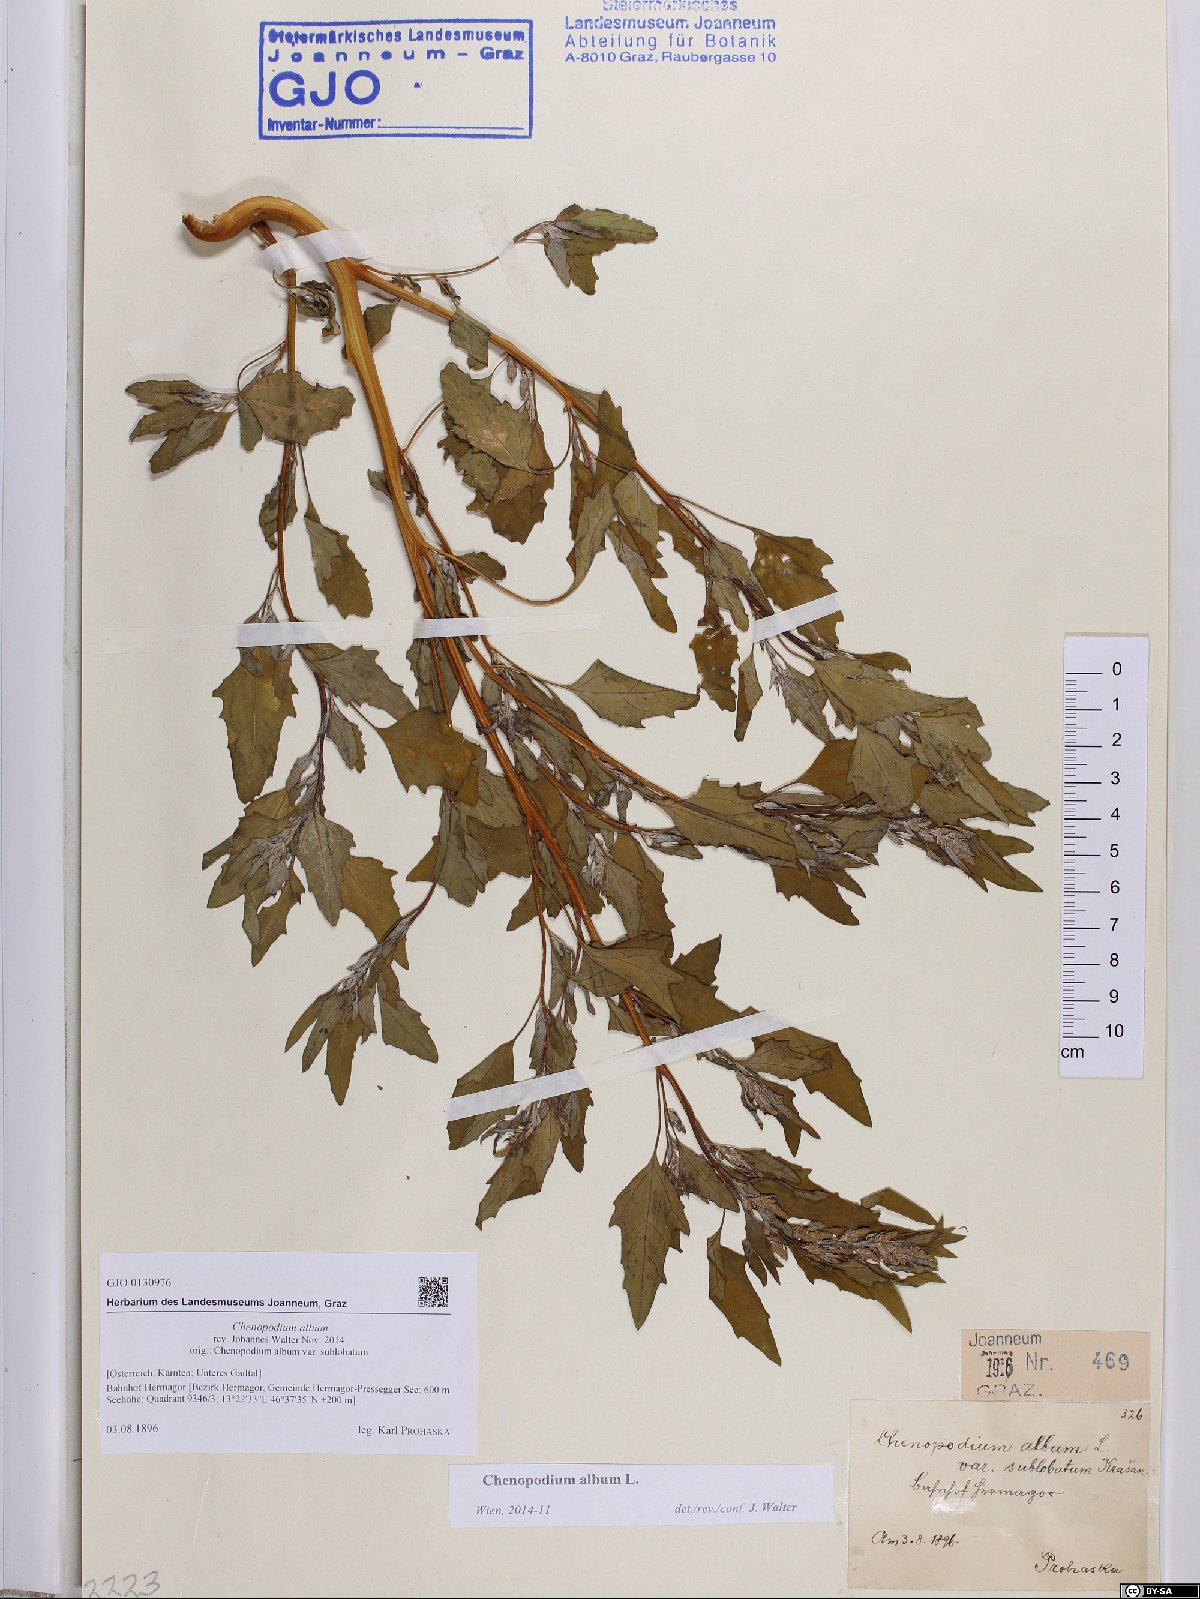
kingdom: Plantae
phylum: Tracheophyta
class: Magnoliopsida
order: Caryophyllales
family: Amaranthaceae
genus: Chenopodium
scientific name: Chenopodium album
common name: Fat-hen
